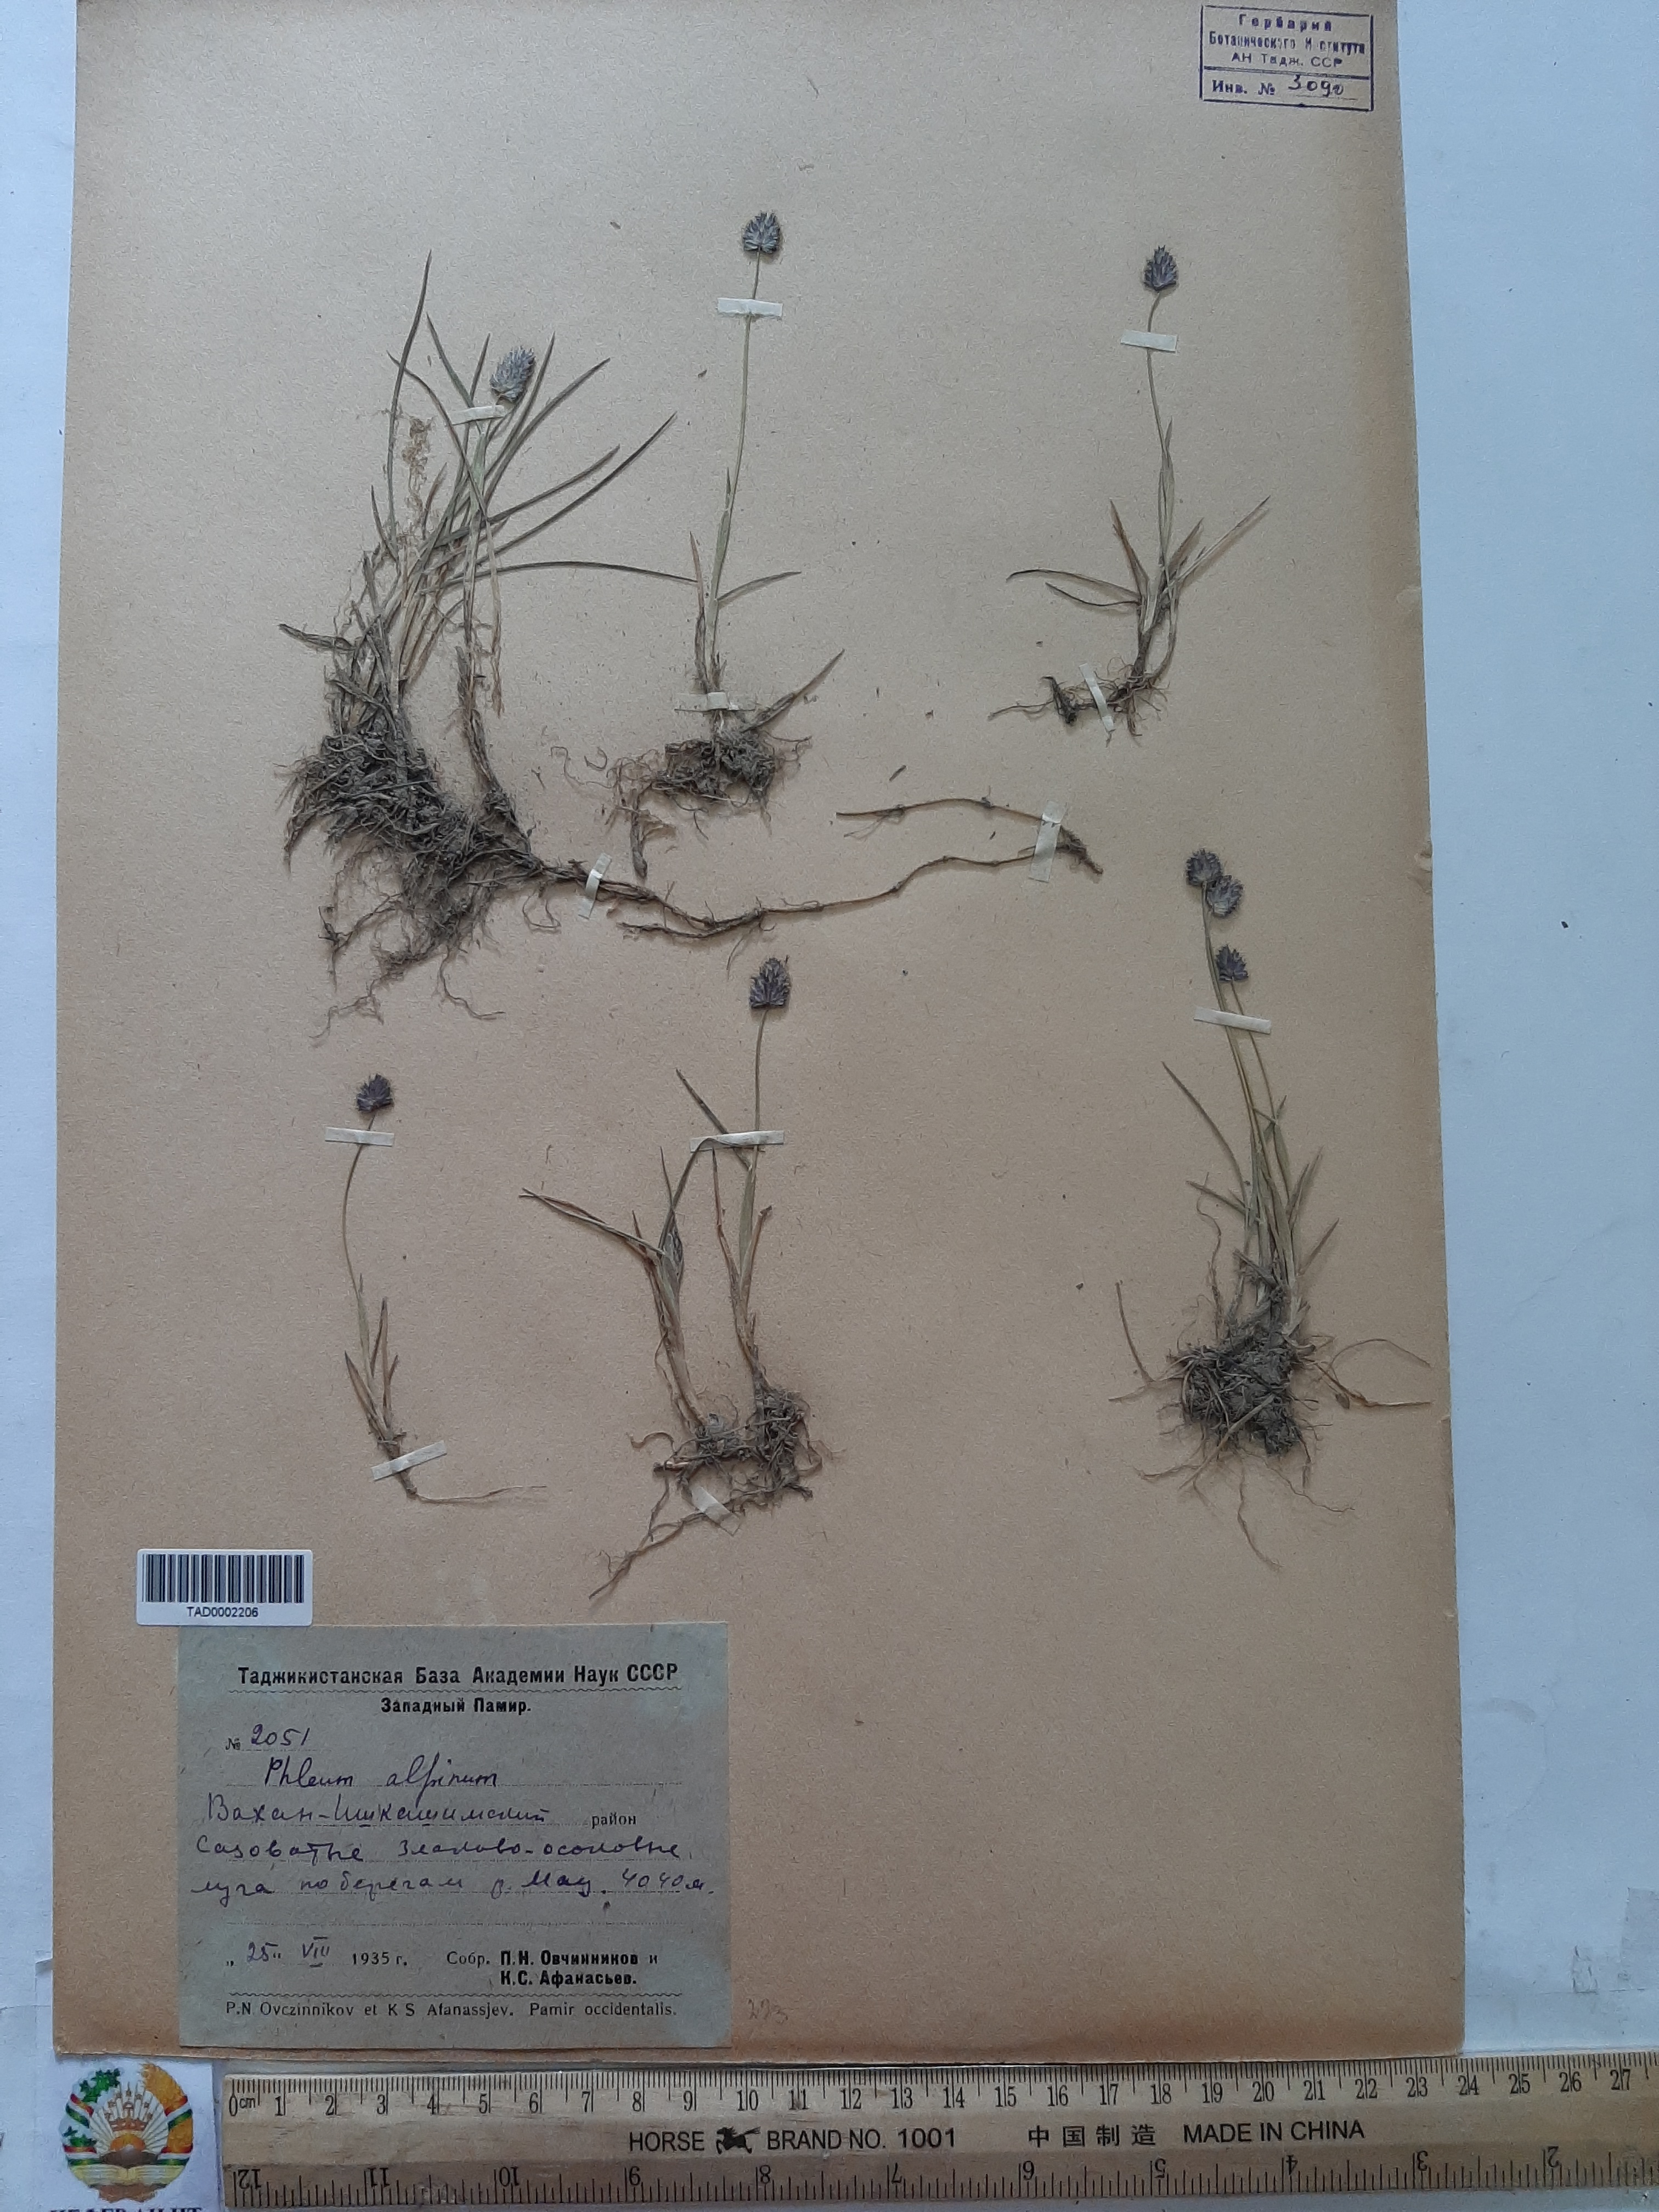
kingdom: Plantae
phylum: Tracheophyta
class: Liliopsida
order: Poales
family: Poaceae
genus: Phleum
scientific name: Phleum alpinum
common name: Alpine cat's-tail
